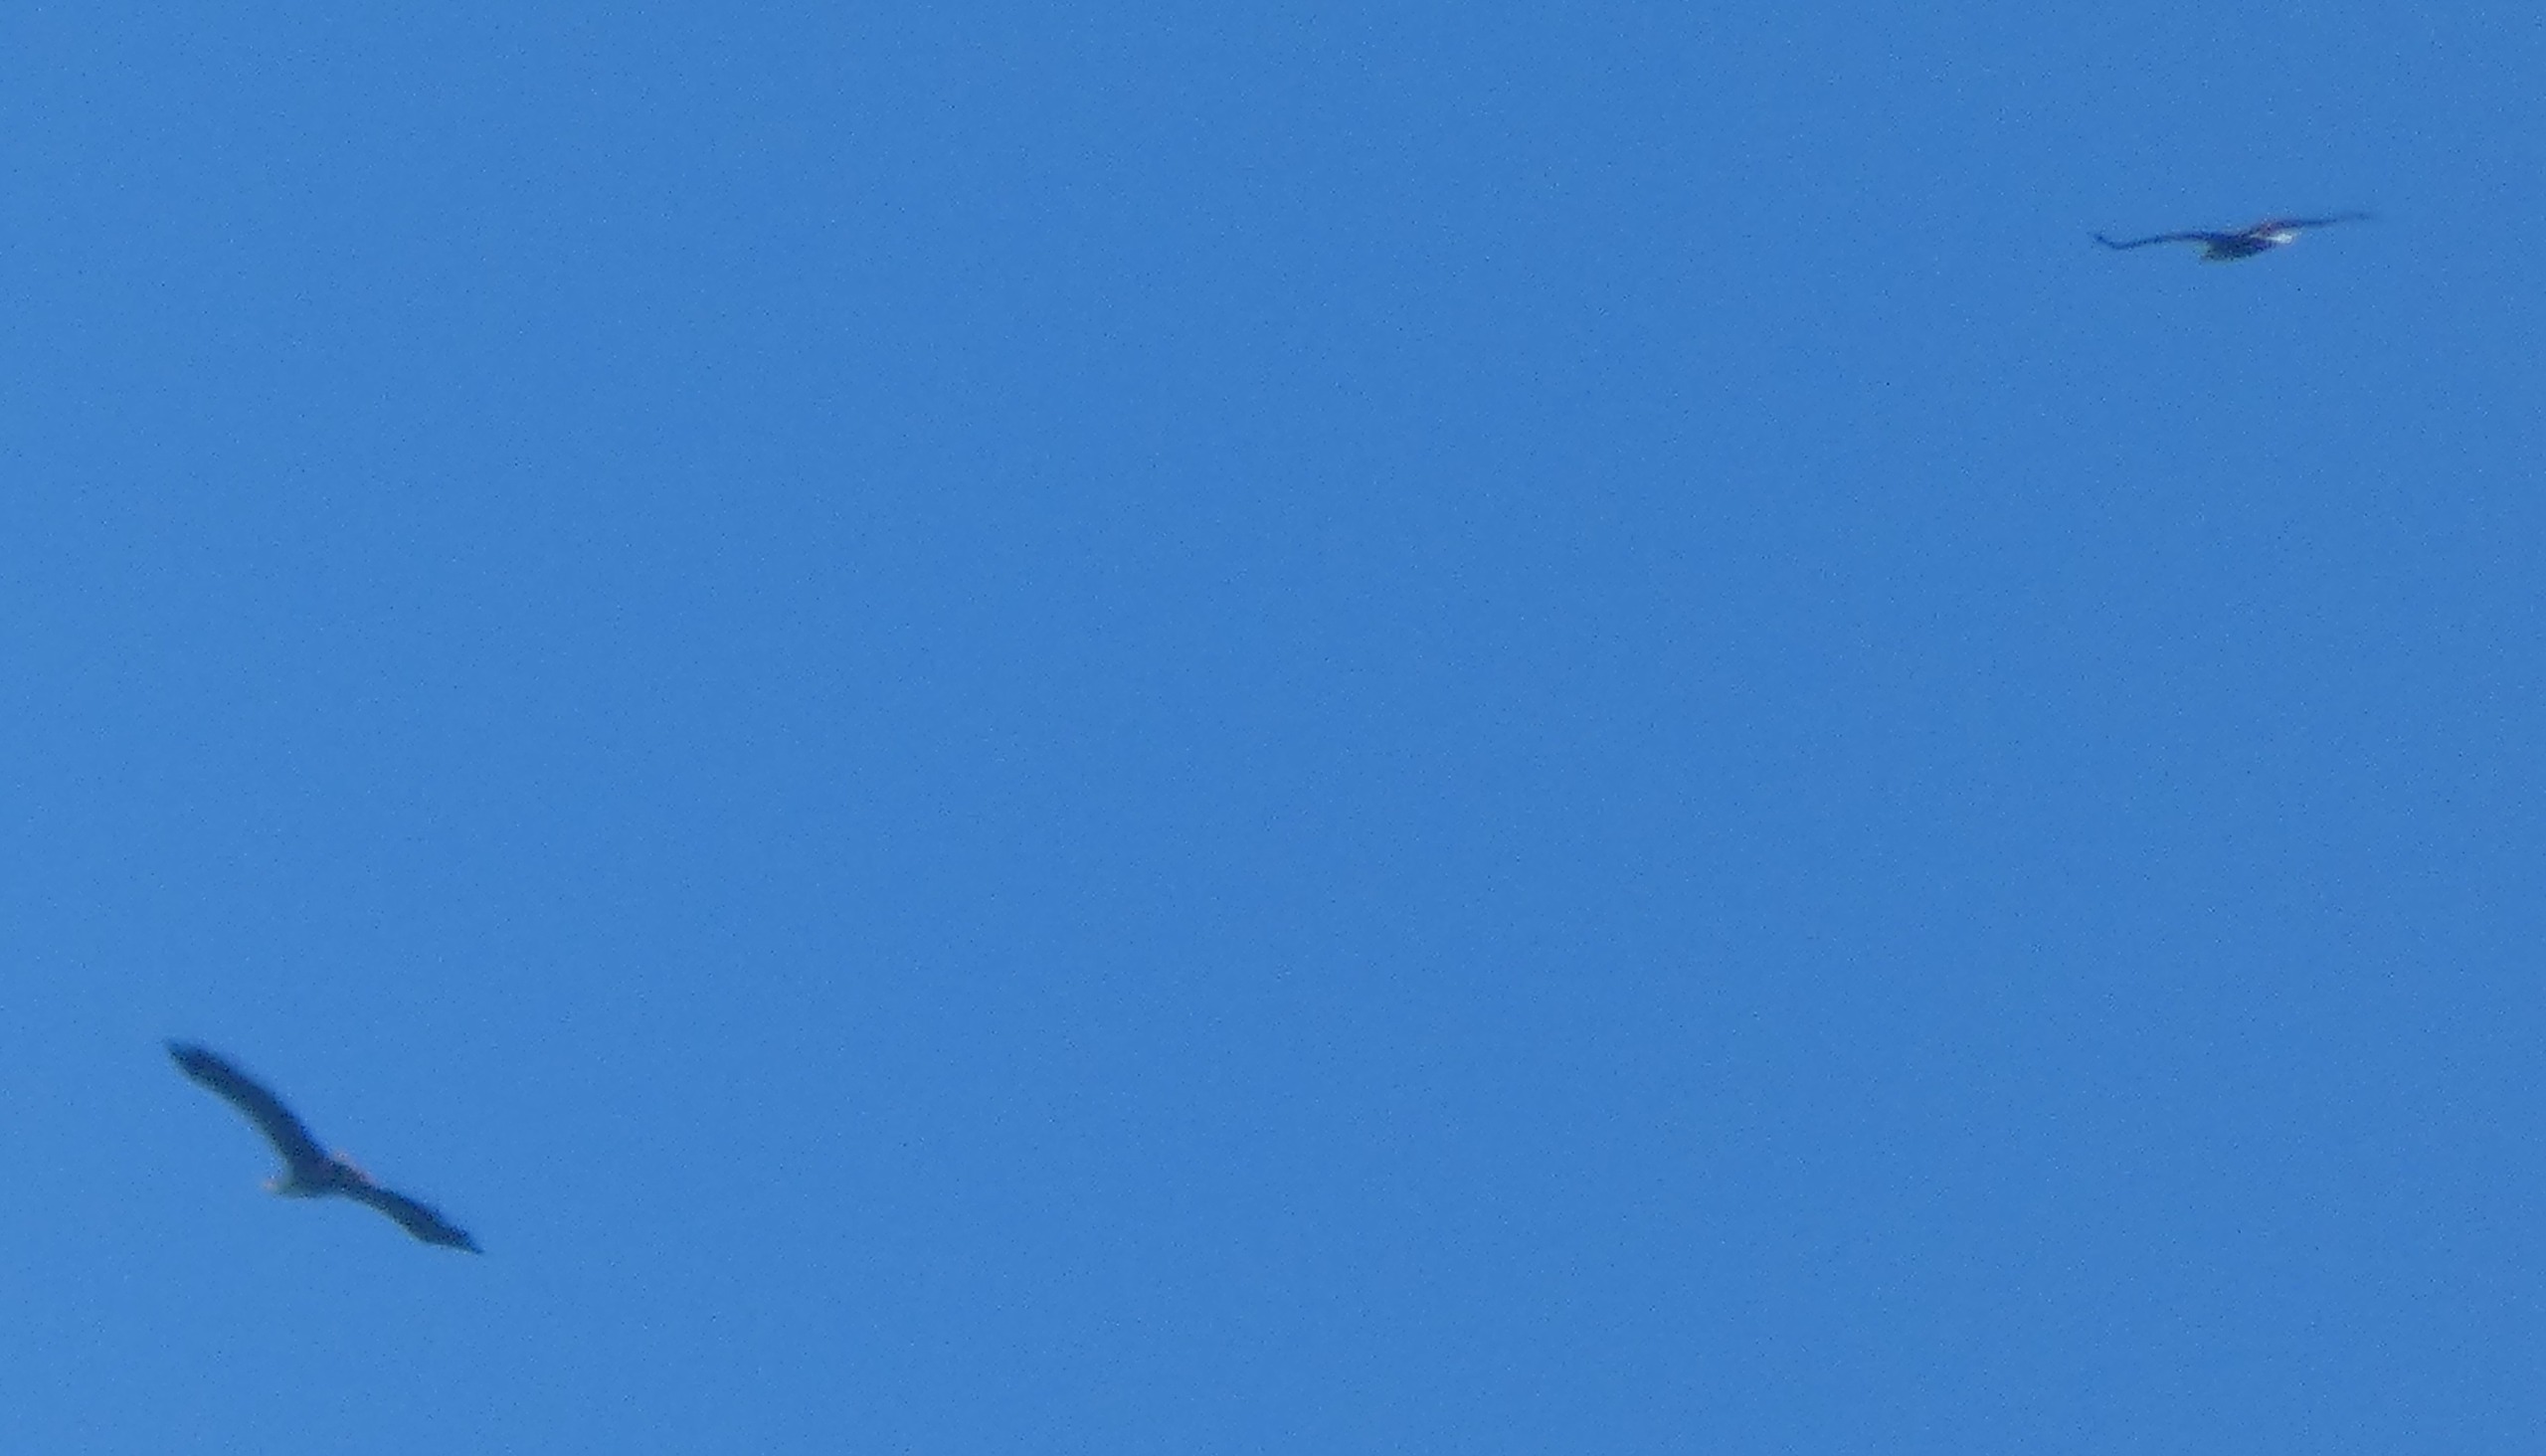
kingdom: Animalia
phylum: Chordata
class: Aves
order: Accipitriformes
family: Accipitridae
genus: Haliaeetus
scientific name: Haliaeetus albicilla
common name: Havørn
